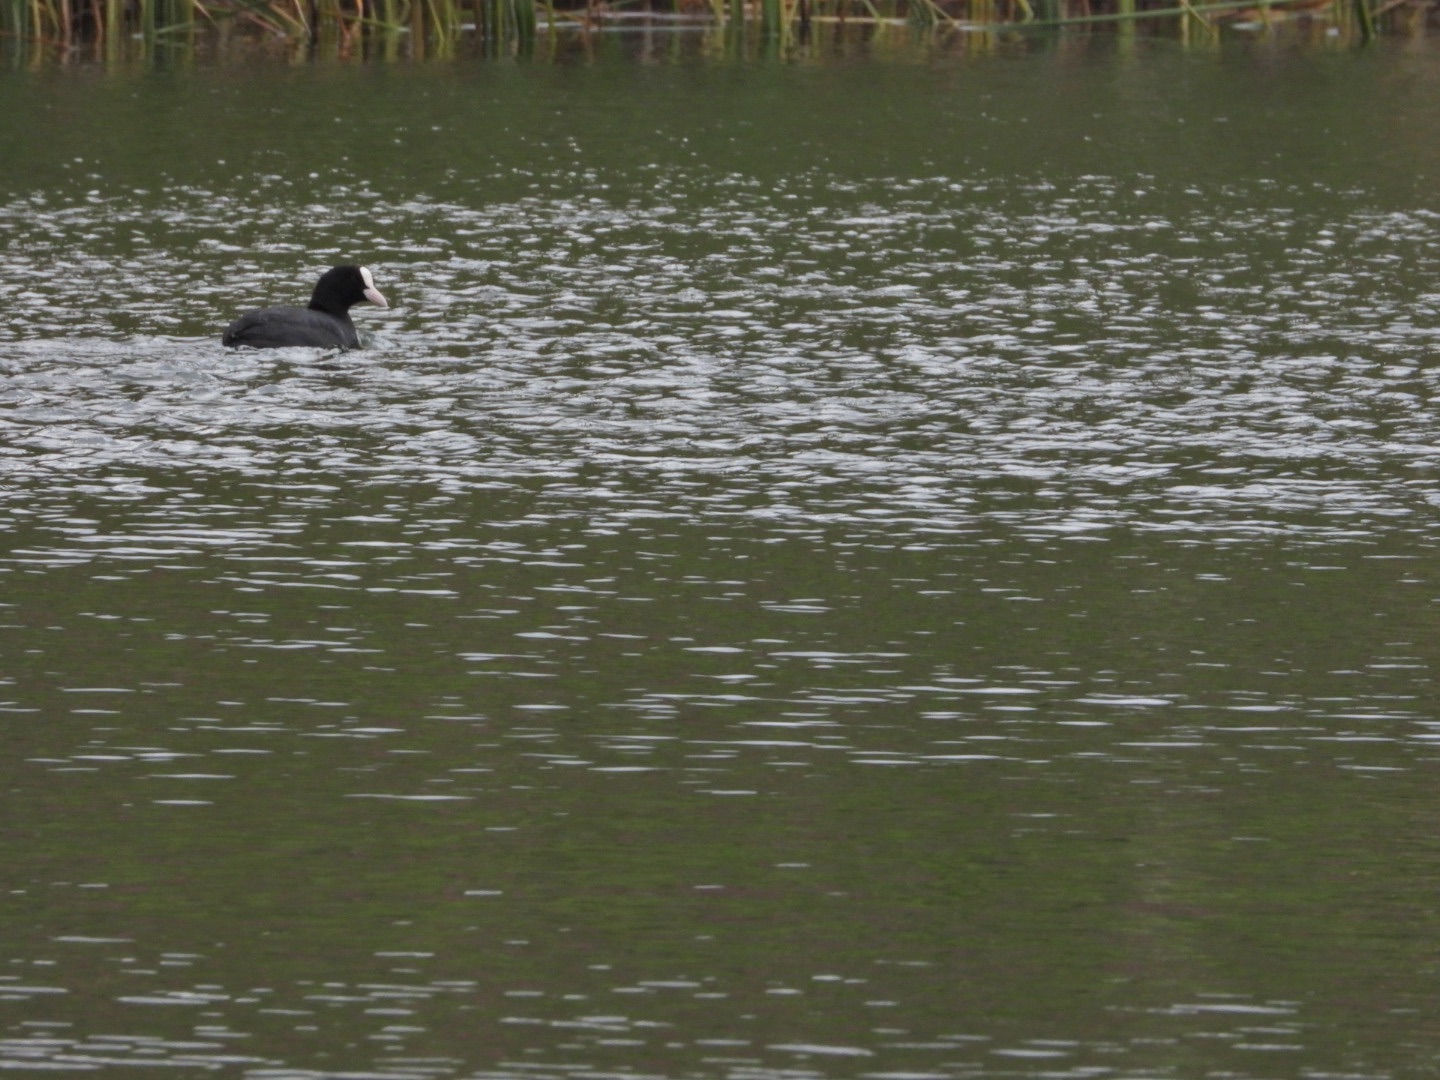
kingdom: Animalia
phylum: Chordata
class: Aves
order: Gruiformes
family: Rallidae
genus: Fulica
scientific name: Fulica atra
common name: Blishøne
